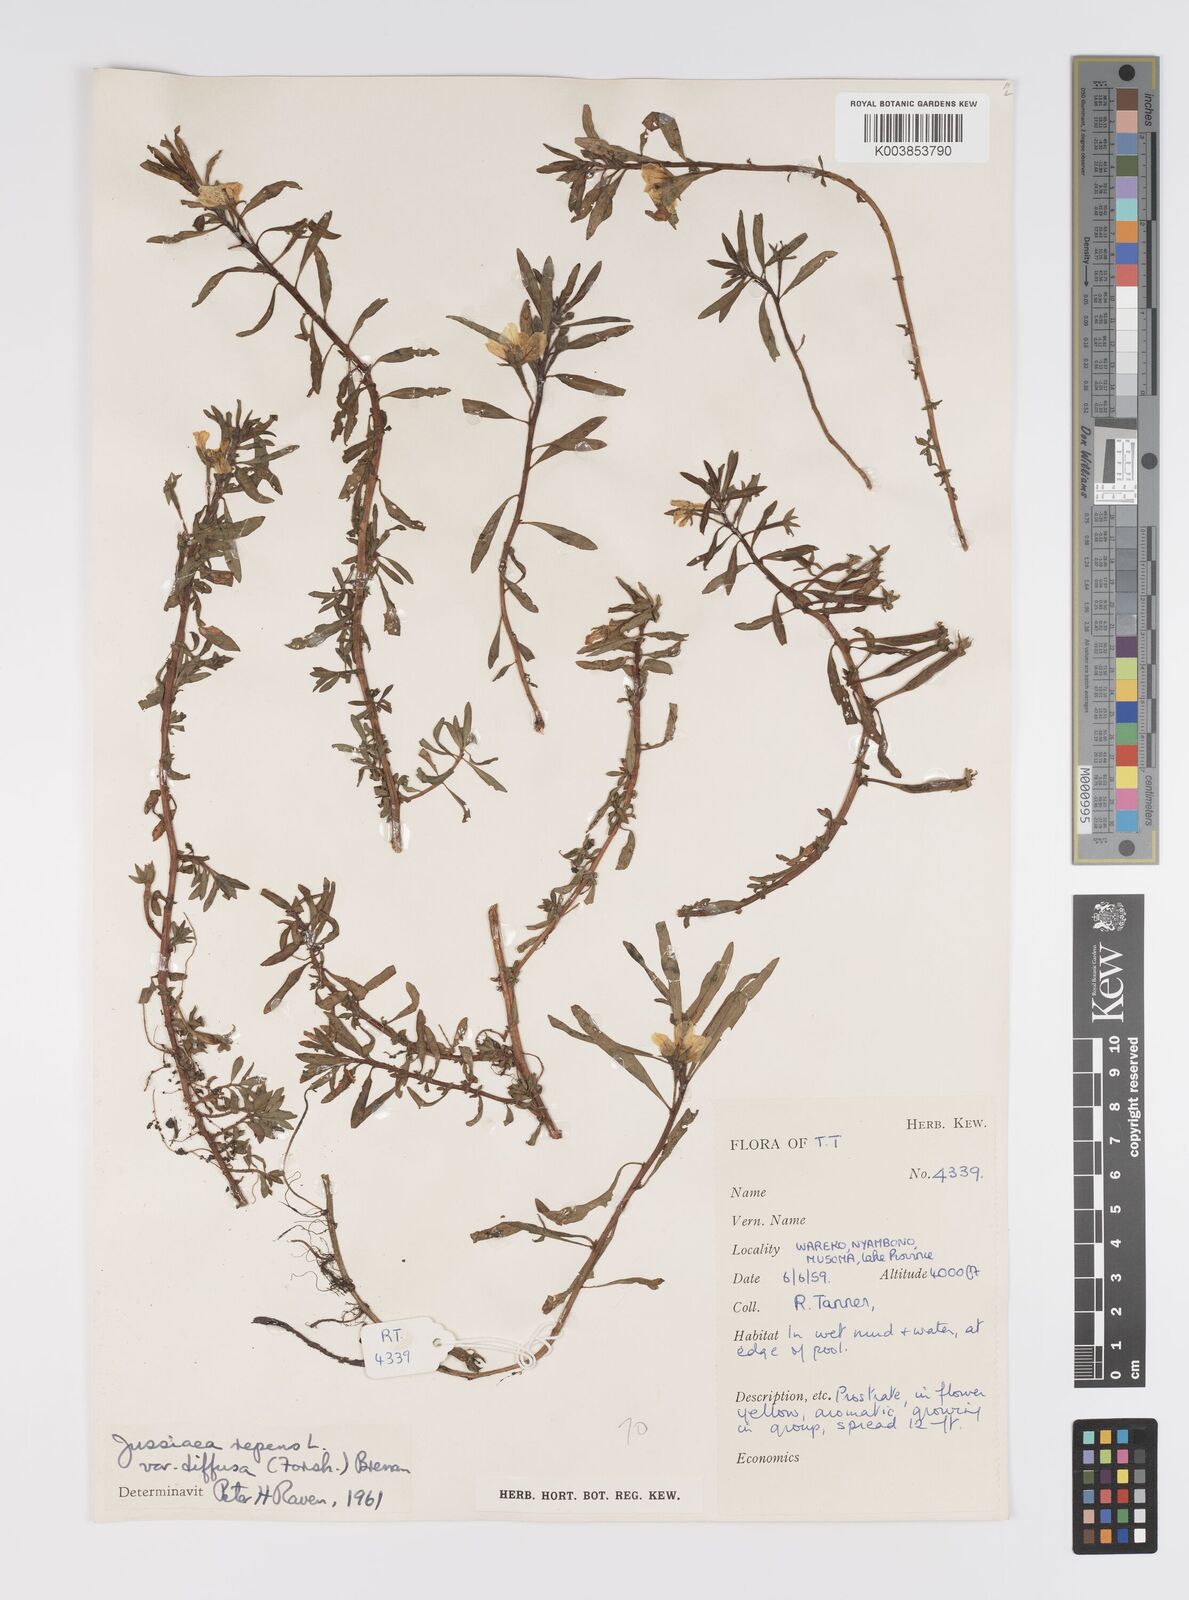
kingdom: Plantae
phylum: Tracheophyta
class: Magnoliopsida
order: Myrtales
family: Onagraceae
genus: Ludwigia
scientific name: Ludwigia repens
